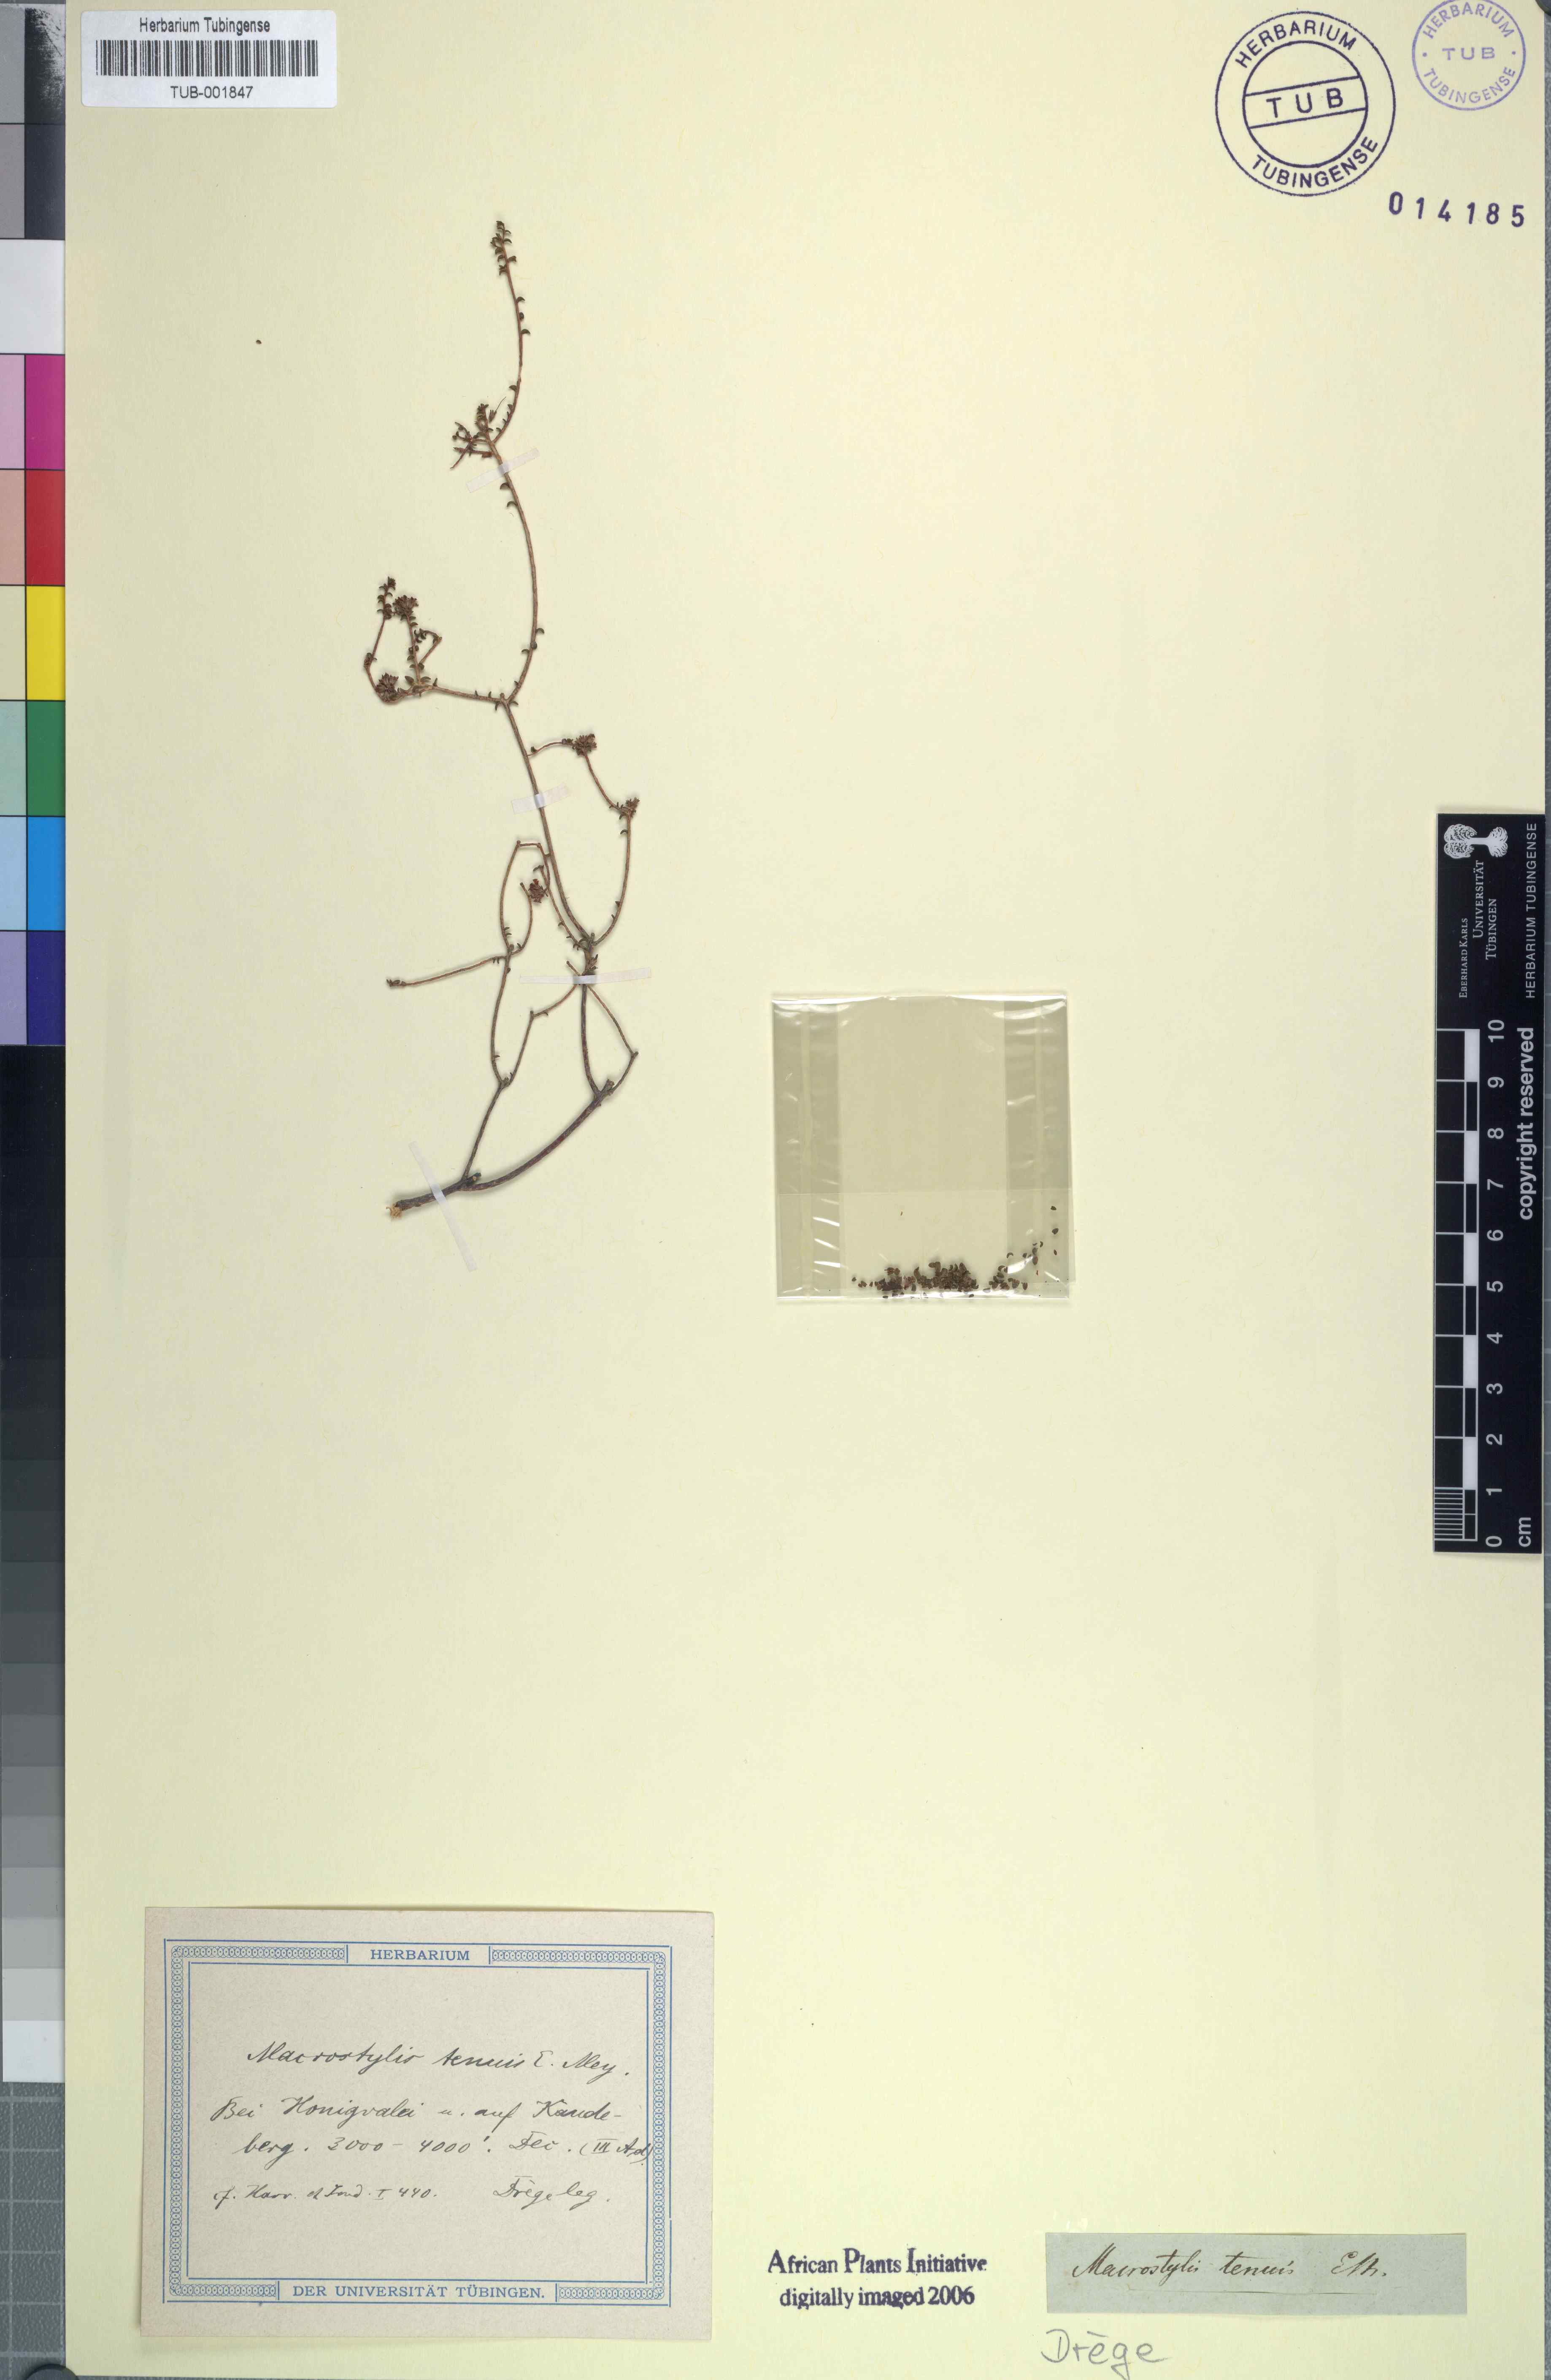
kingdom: Plantae
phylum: Tracheophyta
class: Magnoliopsida
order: Sapindales
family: Rutaceae
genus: Macrostylis
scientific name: Macrostylis tenuis
